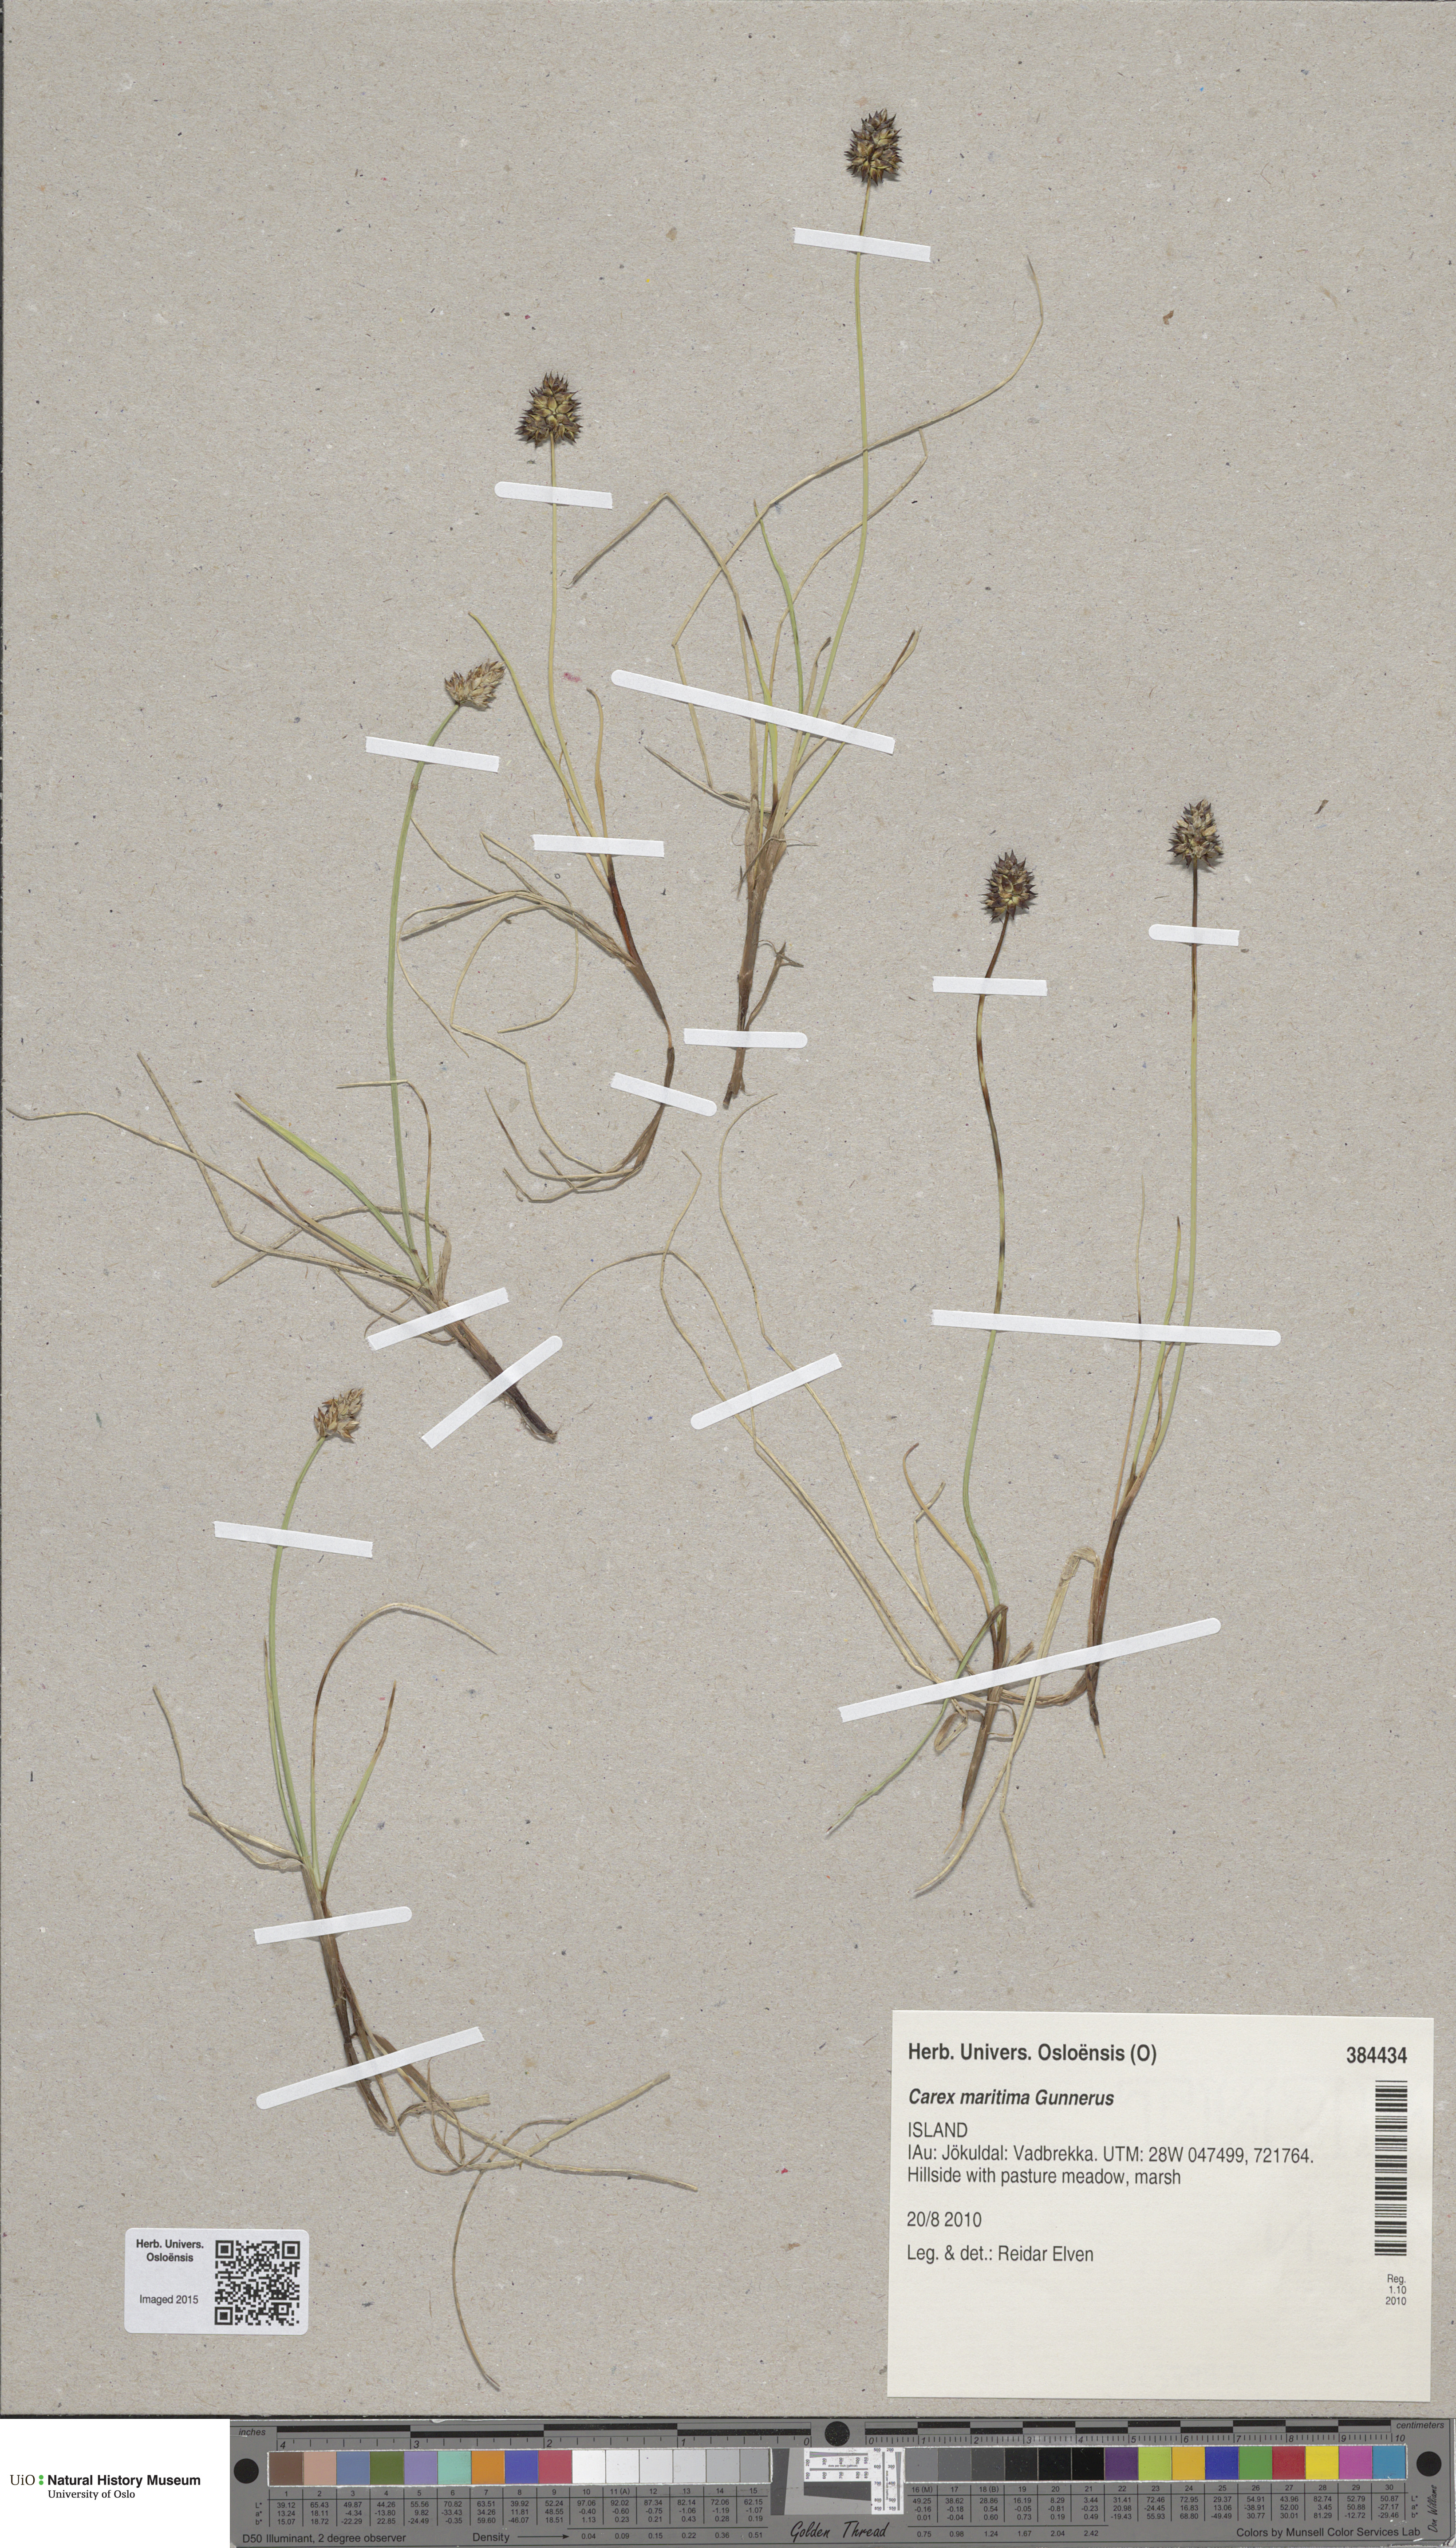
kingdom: Plantae
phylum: Tracheophyta
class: Liliopsida
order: Poales
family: Cyperaceae
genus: Carex
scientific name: Carex maritima
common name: Curved sedge
